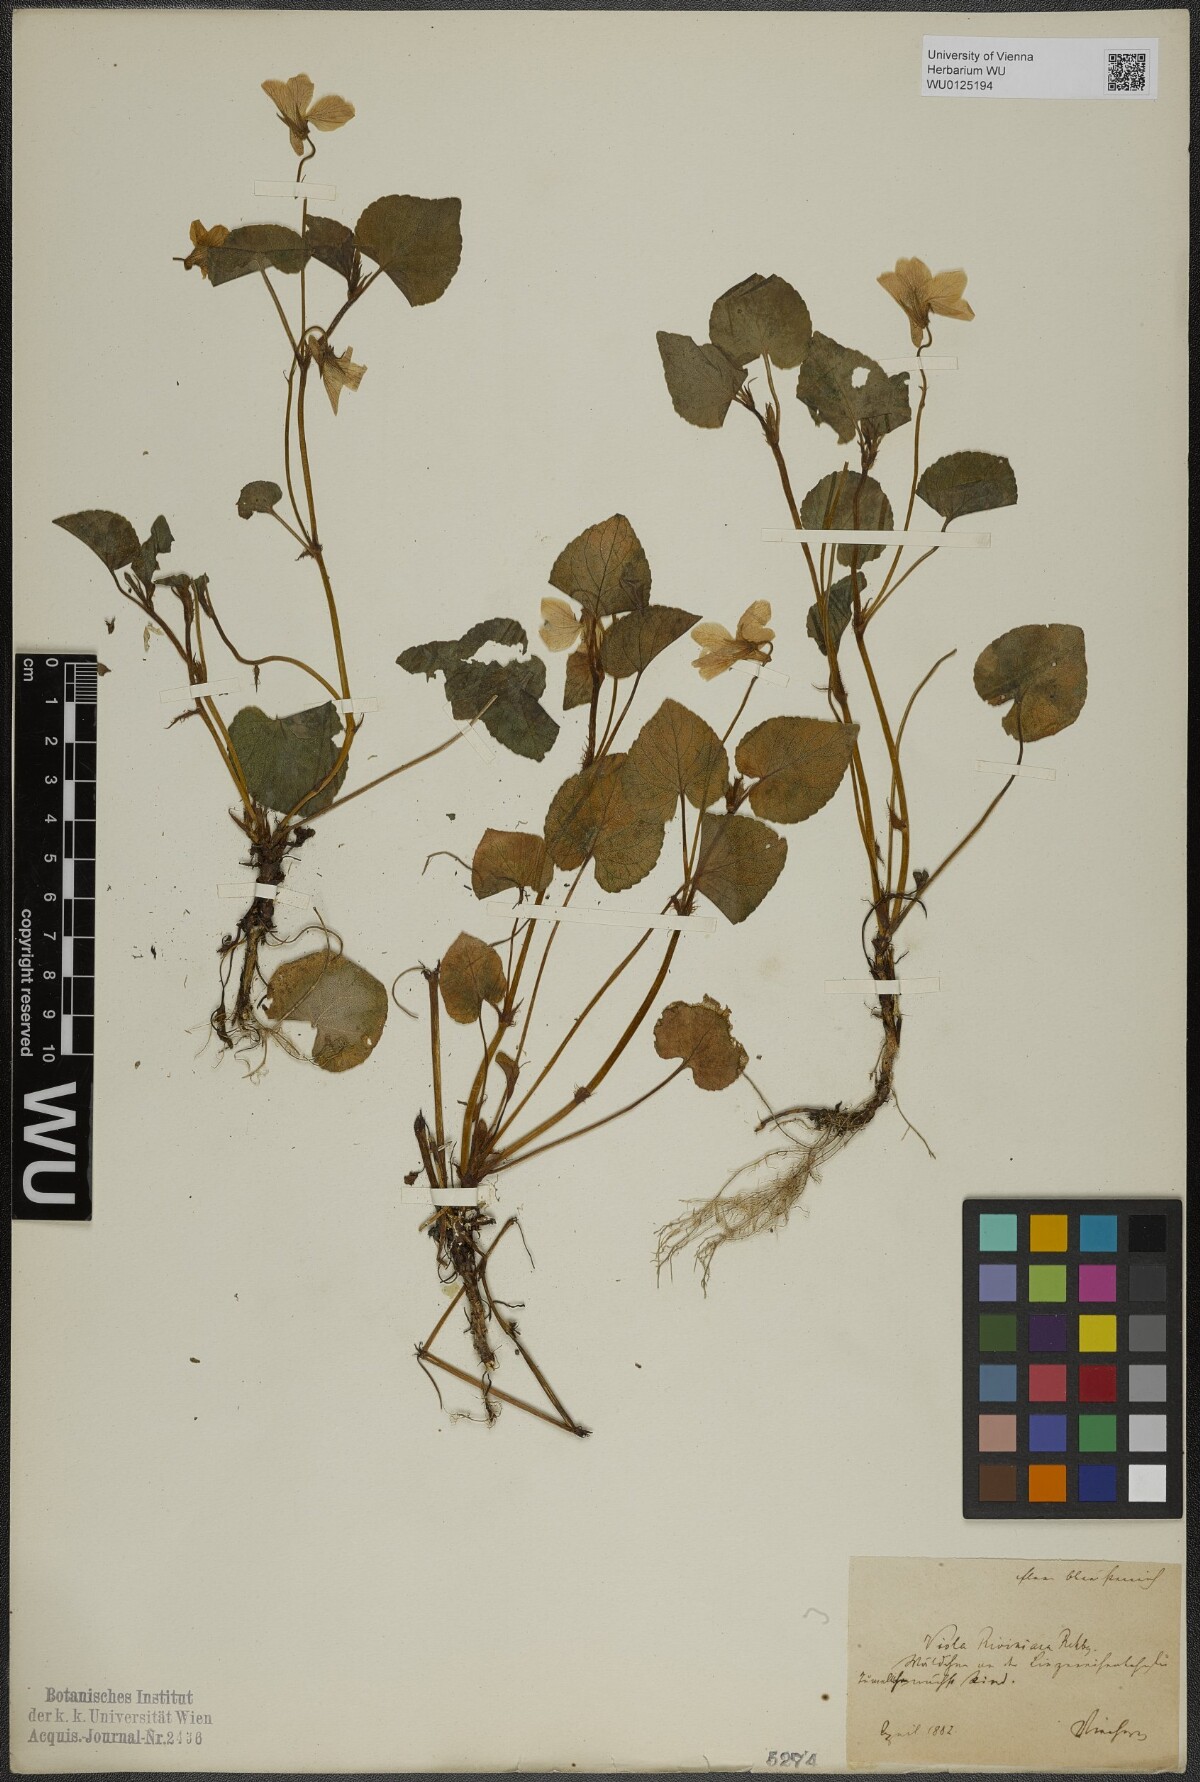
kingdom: Plantae
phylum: Tracheophyta
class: Magnoliopsida
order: Malpighiales
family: Violaceae
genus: Viola
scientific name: Viola riviniana
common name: Common dog-violet
